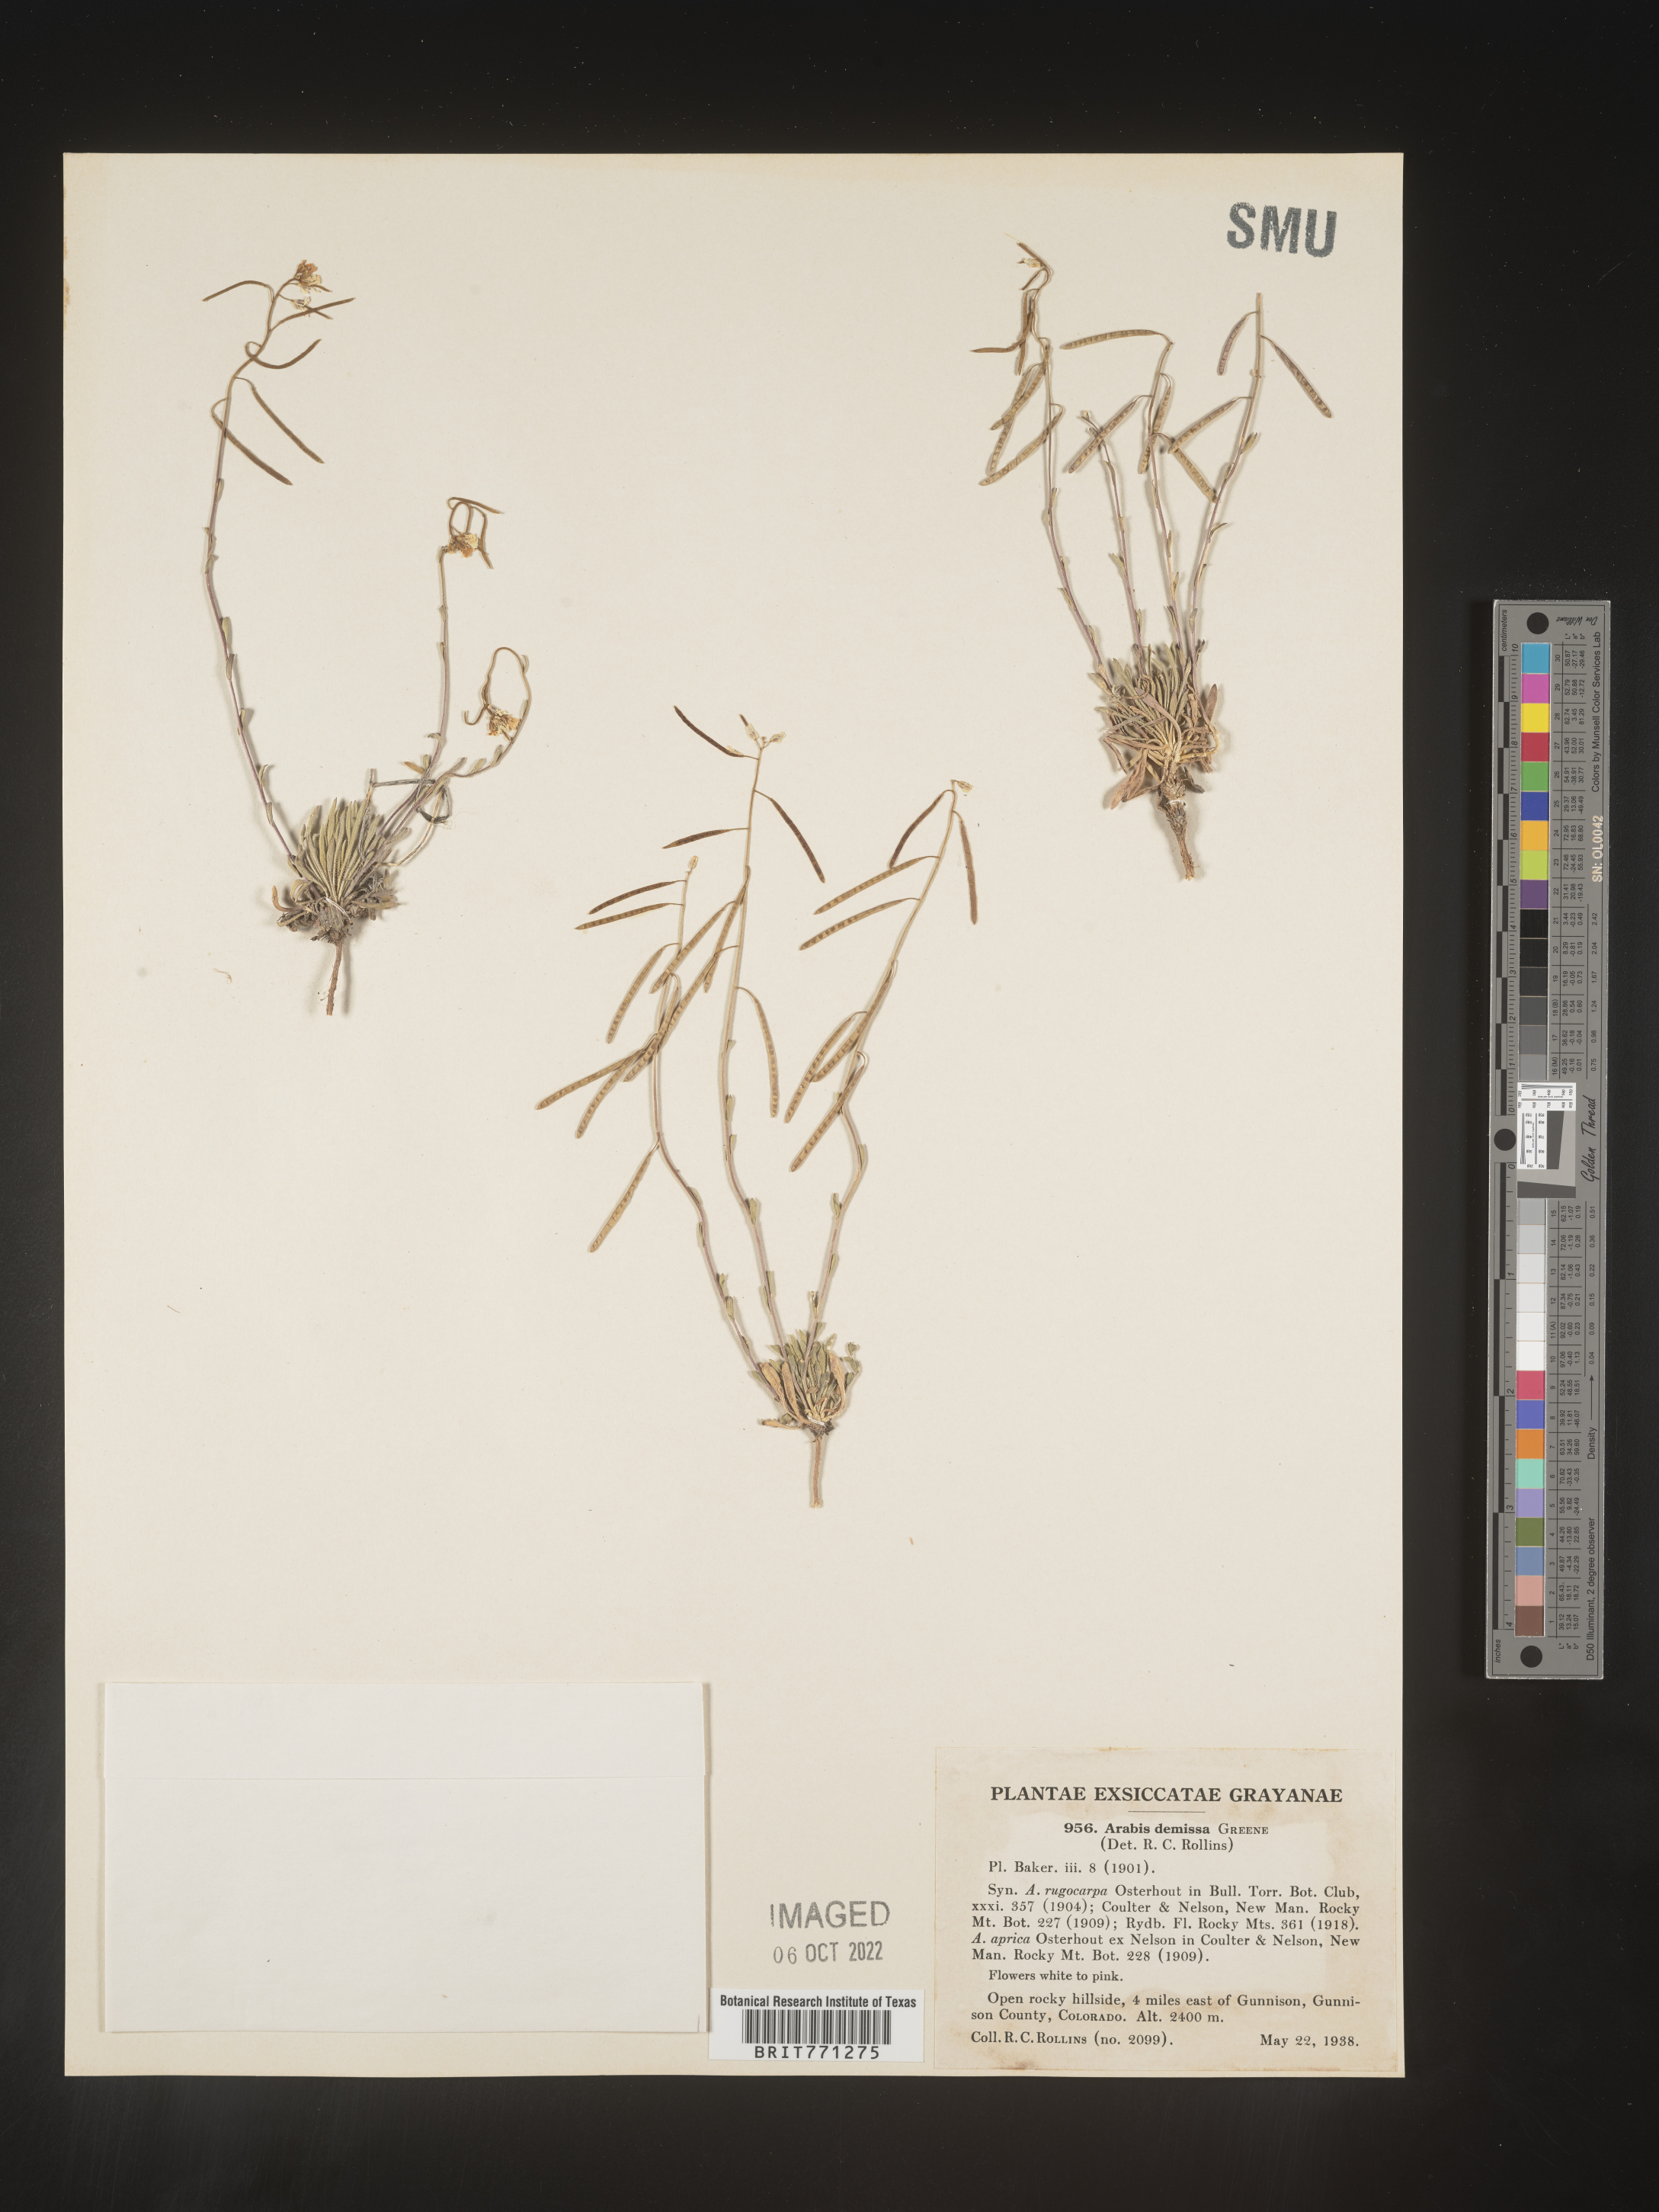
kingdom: Plantae
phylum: Tracheophyta
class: Magnoliopsida
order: Brassicales
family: Brassicaceae
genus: Arabis
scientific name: Arabis
